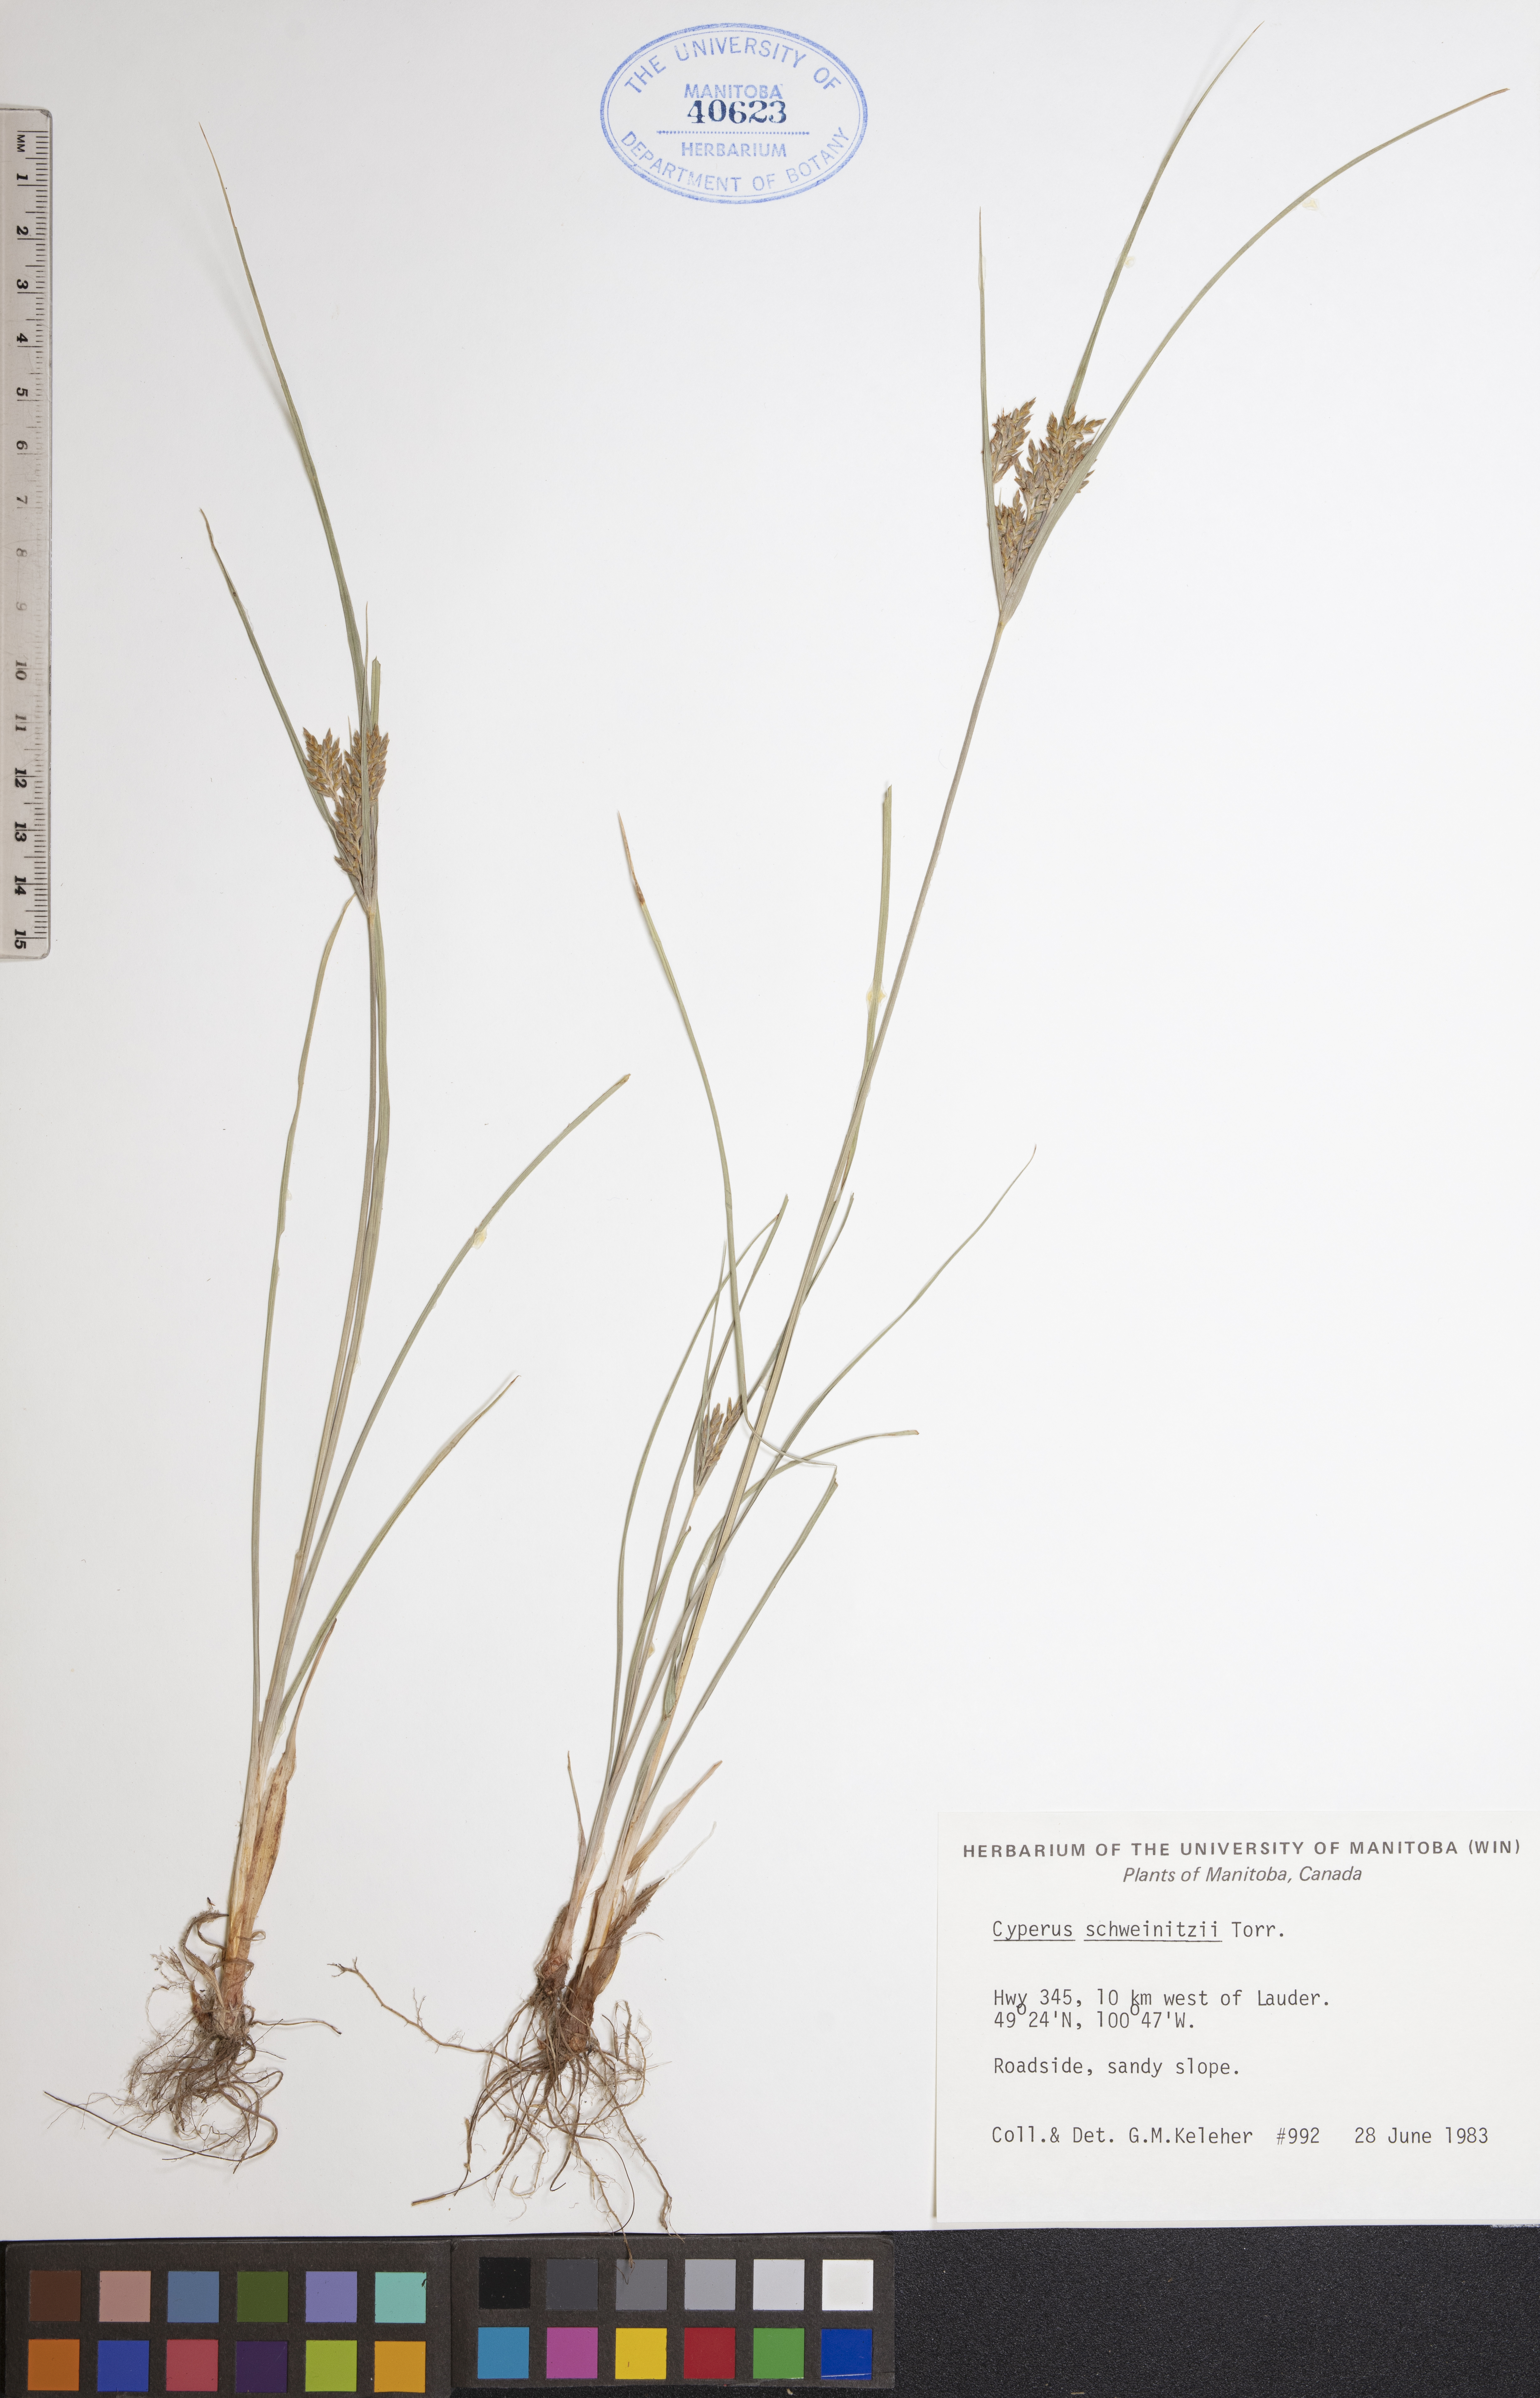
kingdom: Plantae
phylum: Tracheophyta
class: Liliopsida
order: Poales
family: Cyperaceae
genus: Cyperus
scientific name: Cyperus schweinitzii
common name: Schweinitz's cyperus
